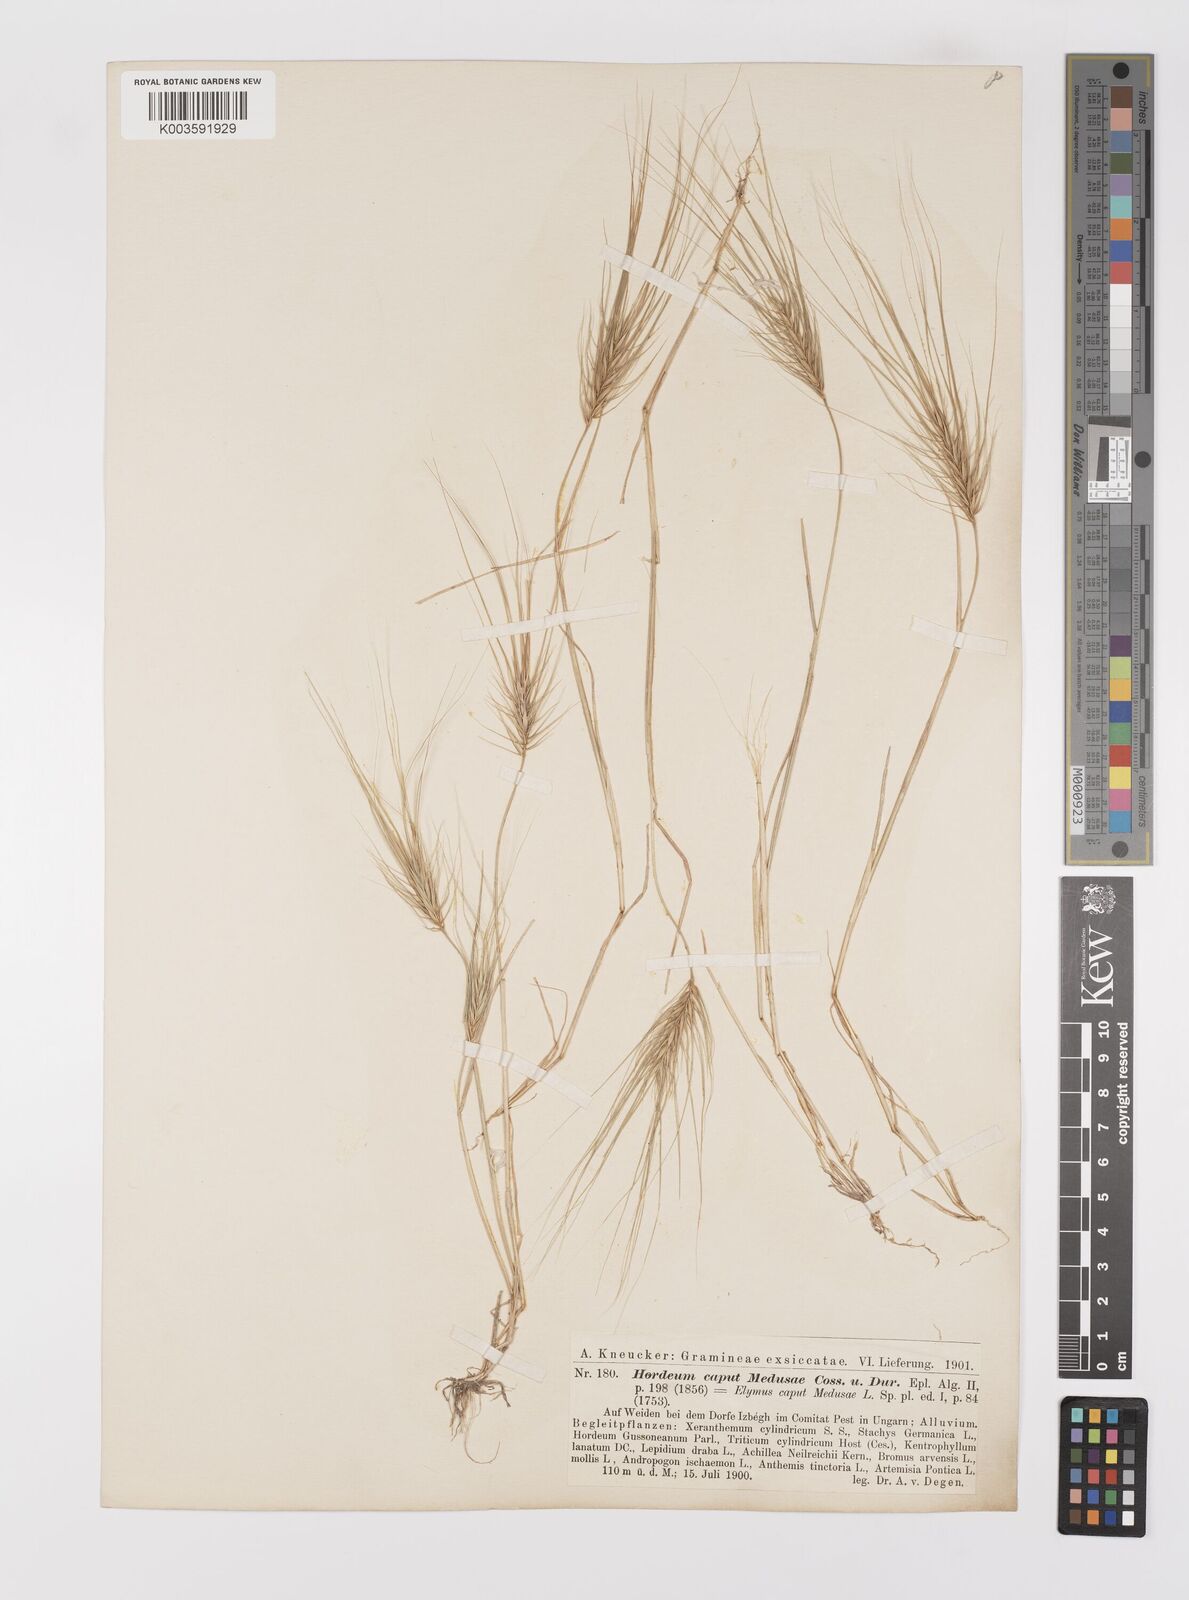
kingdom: Plantae
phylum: Tracheophyta
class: Liliopsida
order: Poales
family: Poaceae
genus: Taeniatherum
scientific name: Taeniatherum caput-medusae
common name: Medusahead
